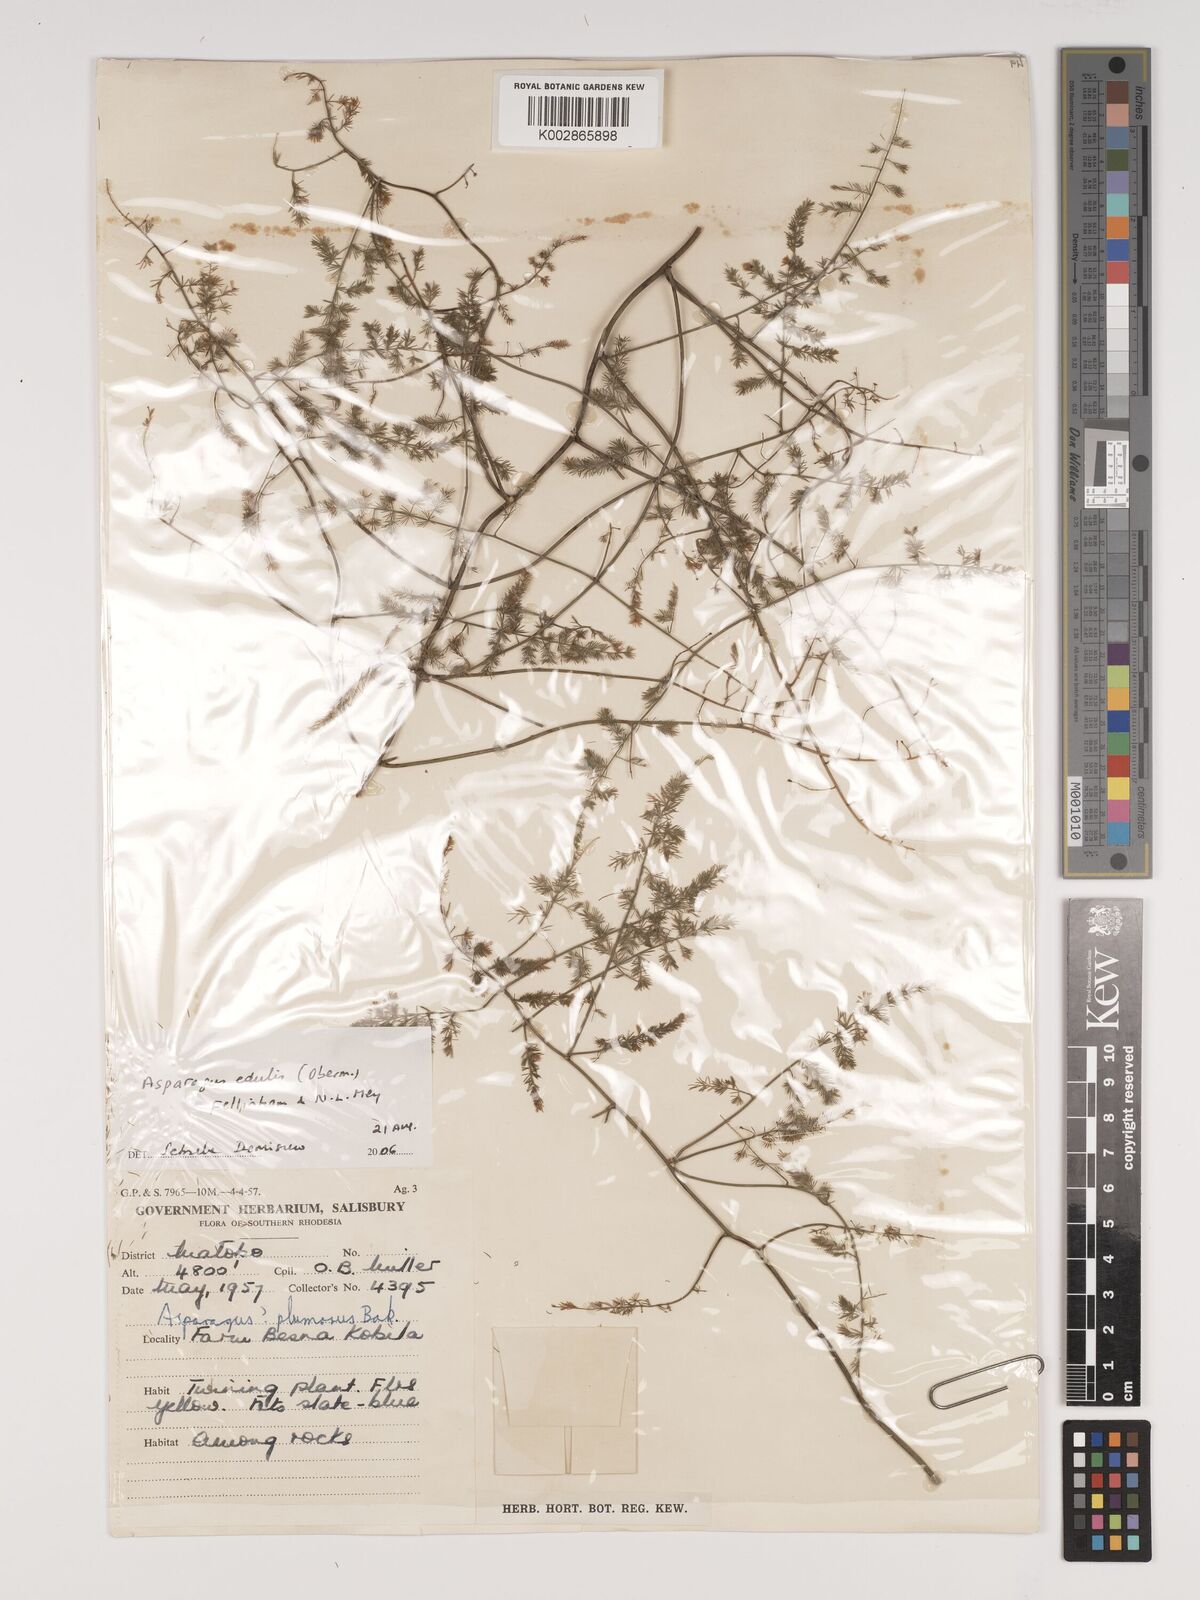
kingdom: Plantae
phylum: Tracheophyta
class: Liliopsida
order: Asparagales
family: Asparagaceae
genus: Asparagus
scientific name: Asparagus edulis
